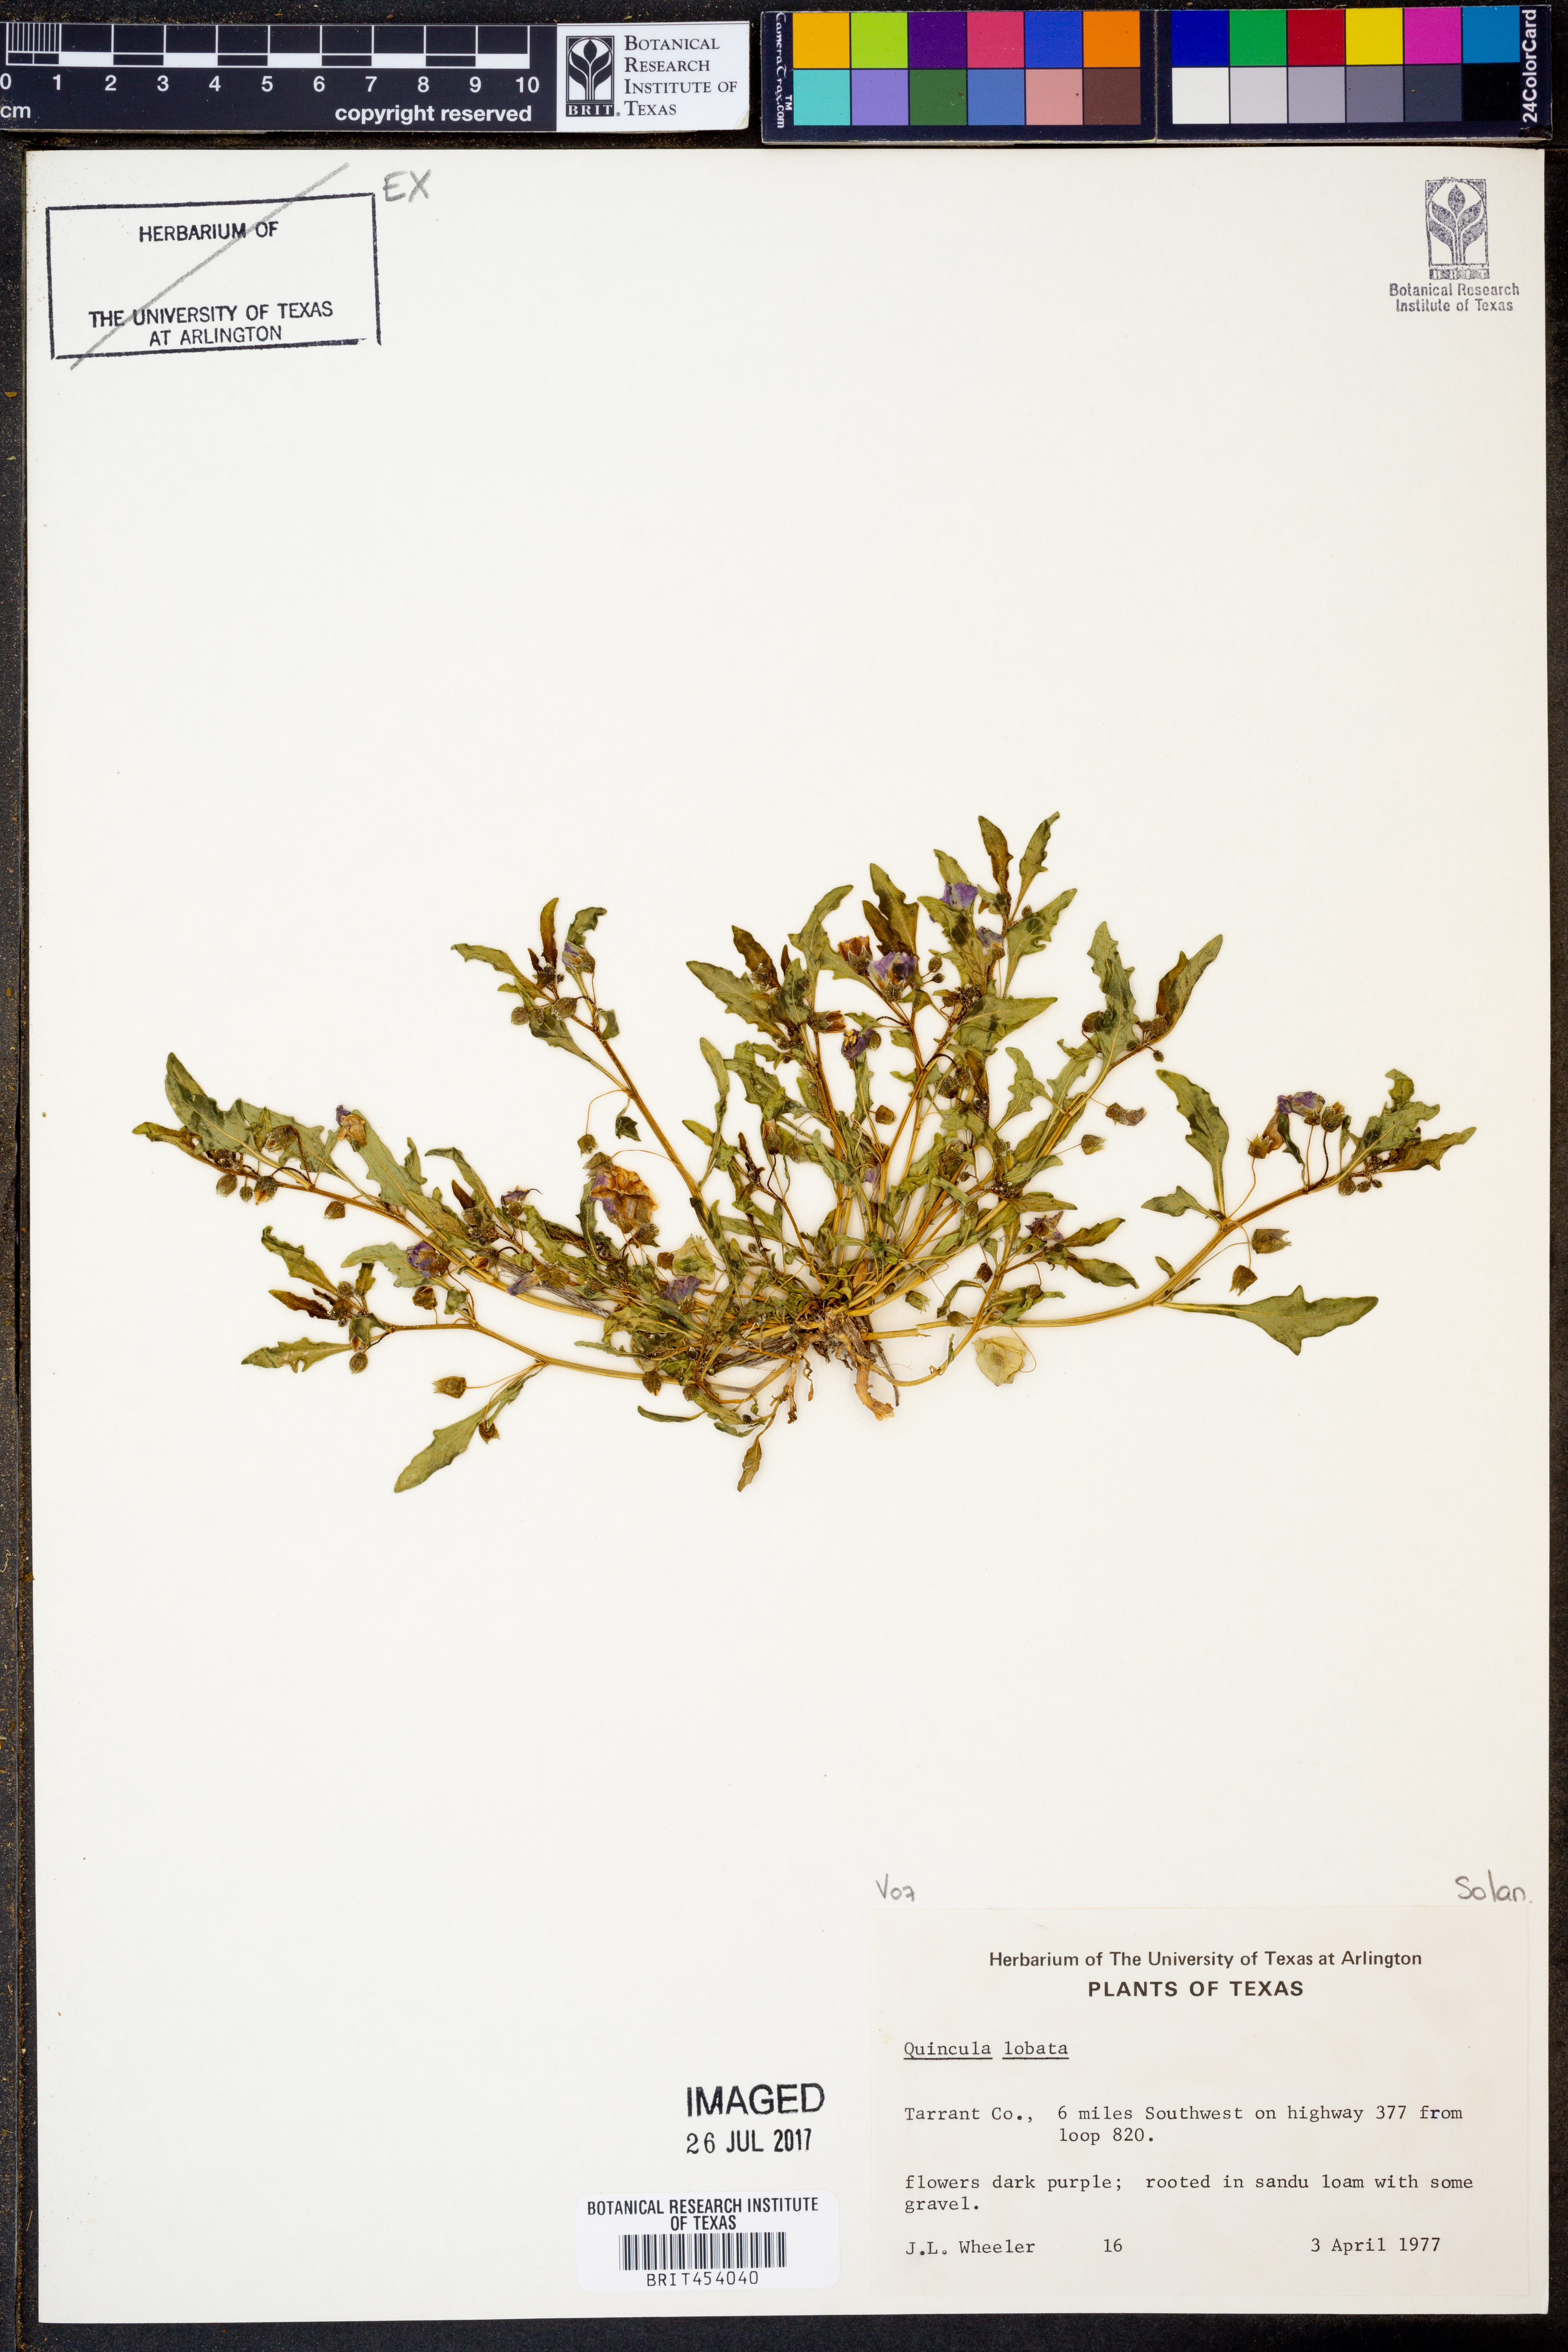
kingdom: Plantae
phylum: Tracheophyta
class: Magnoliopsida
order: Solanales
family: Solanaceae
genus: Quincula
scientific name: Quincula lobata
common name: Purple-ground-cherry
